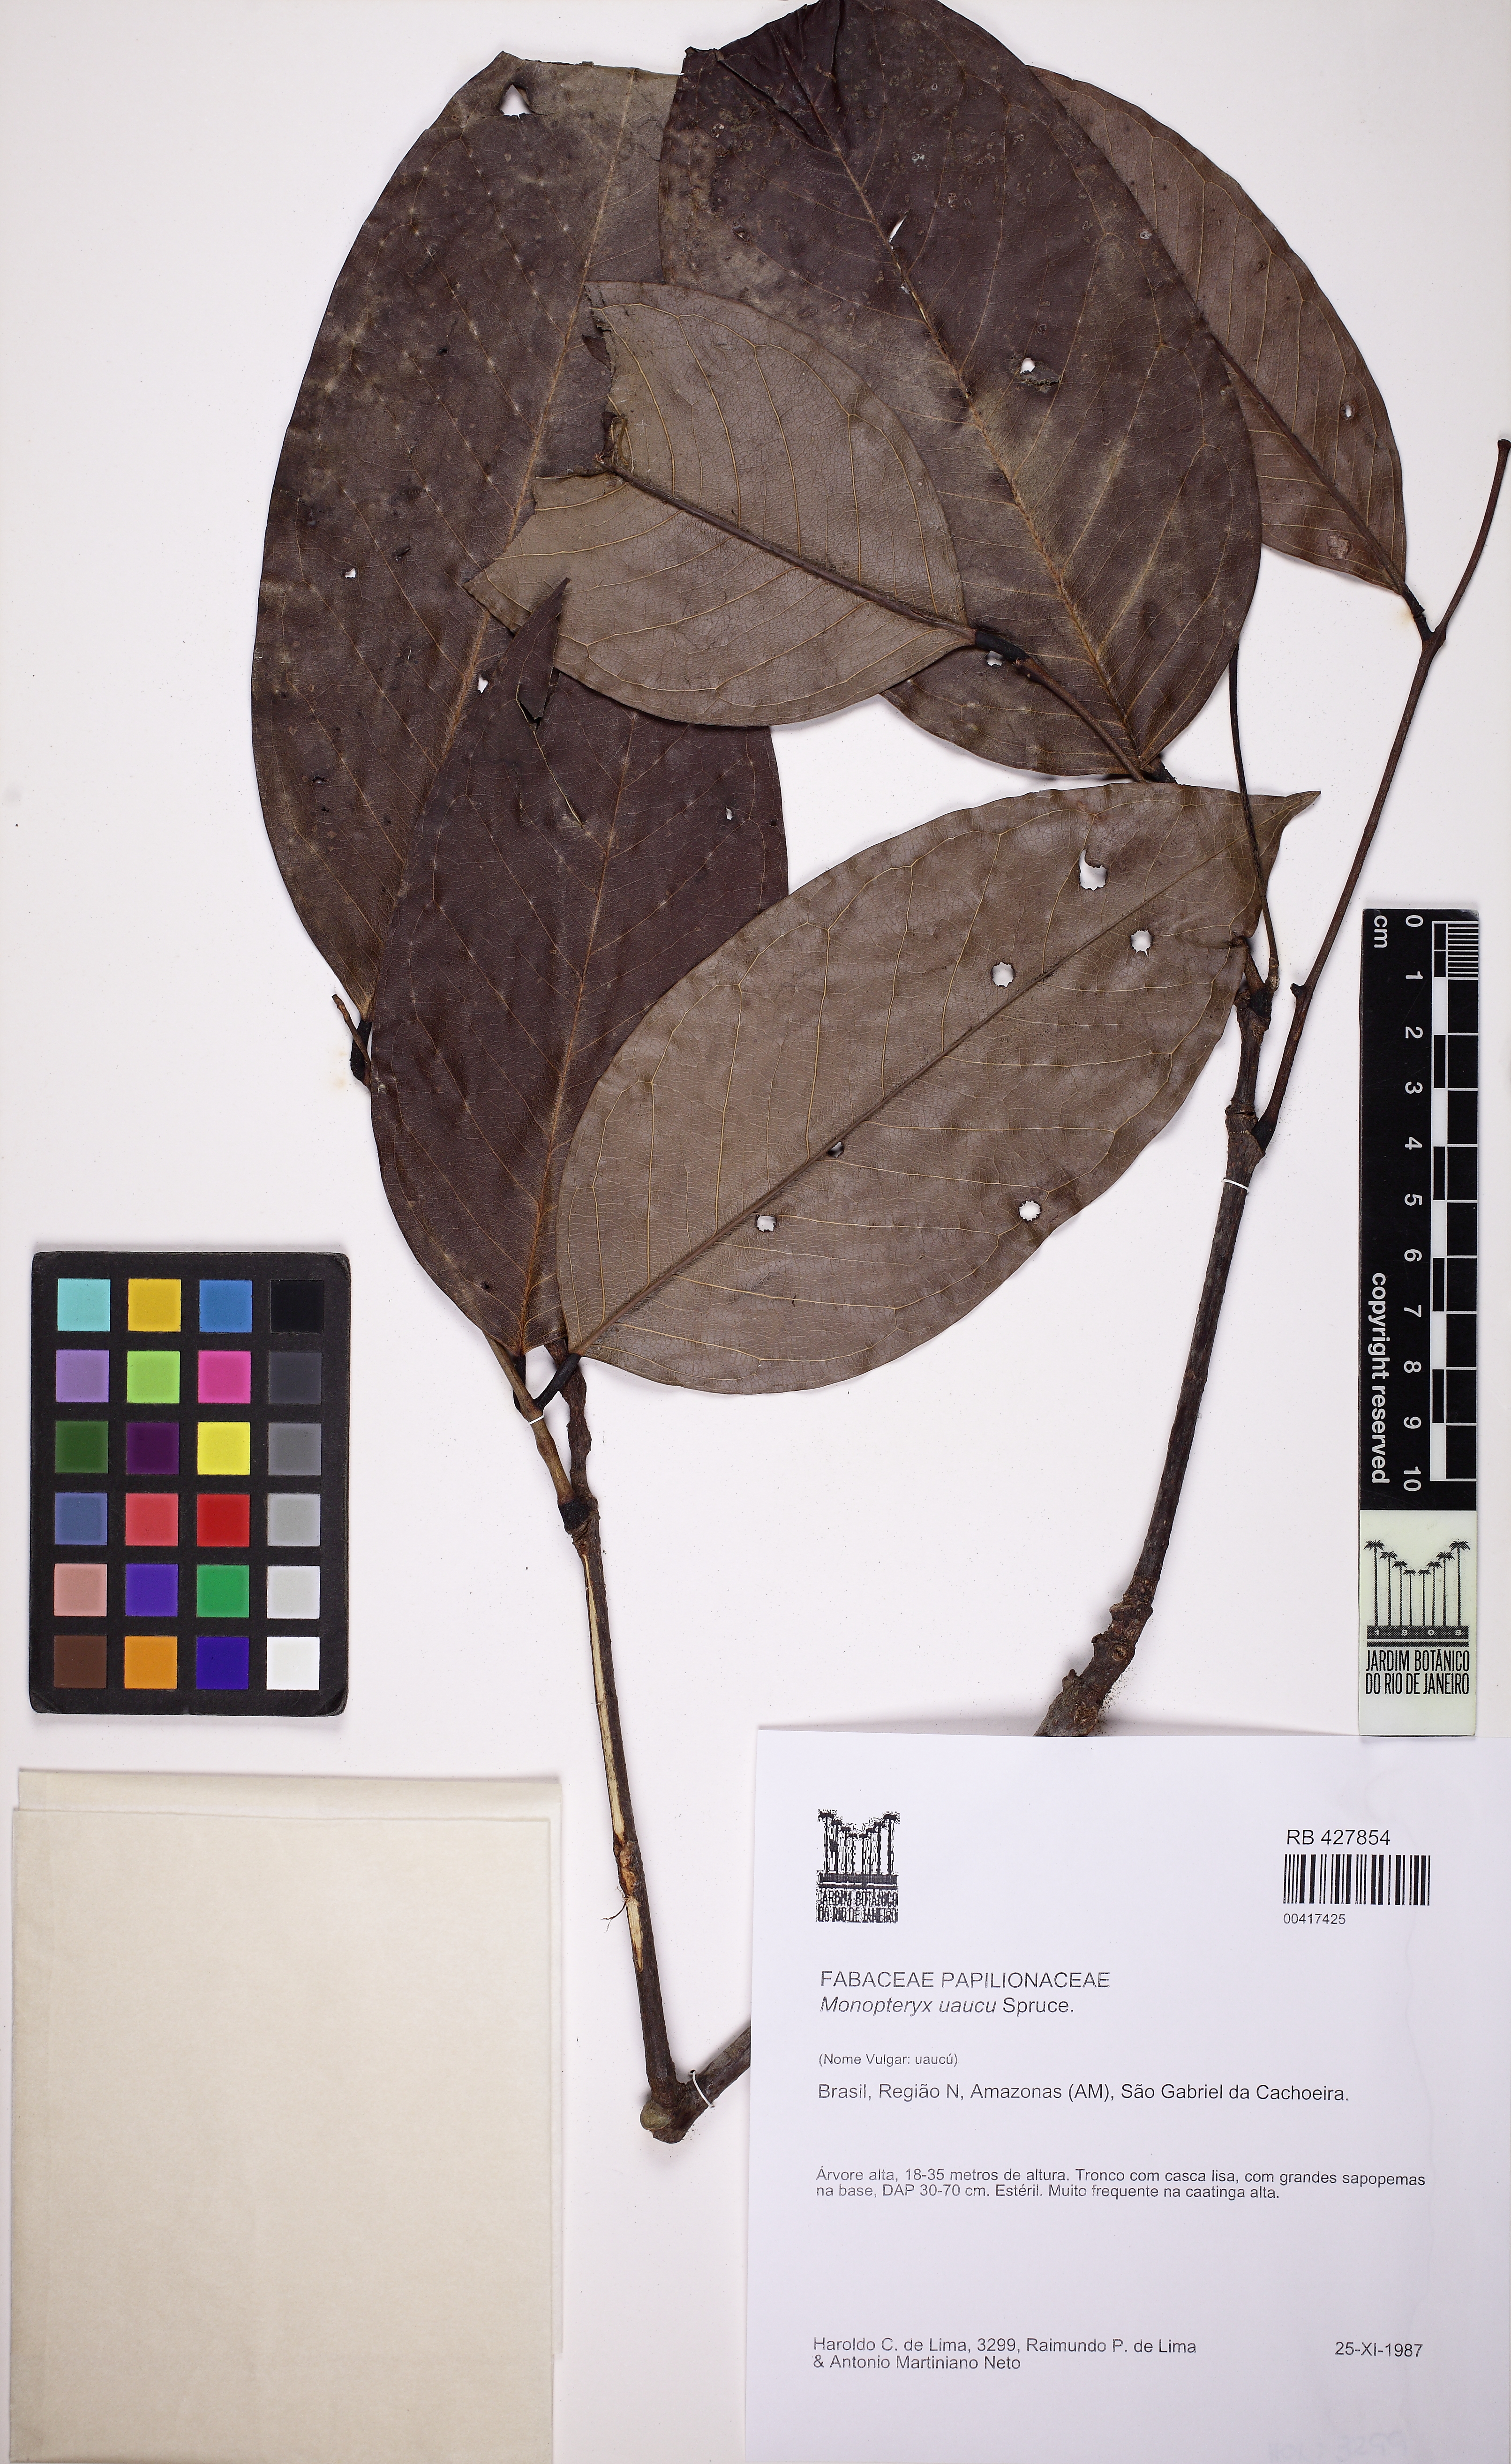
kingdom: Plantae
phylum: Tracheophyta
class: Magnoliopsida
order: Fabales
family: Fabaceae
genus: Monopteryx
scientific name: Monopteryx uaucu
